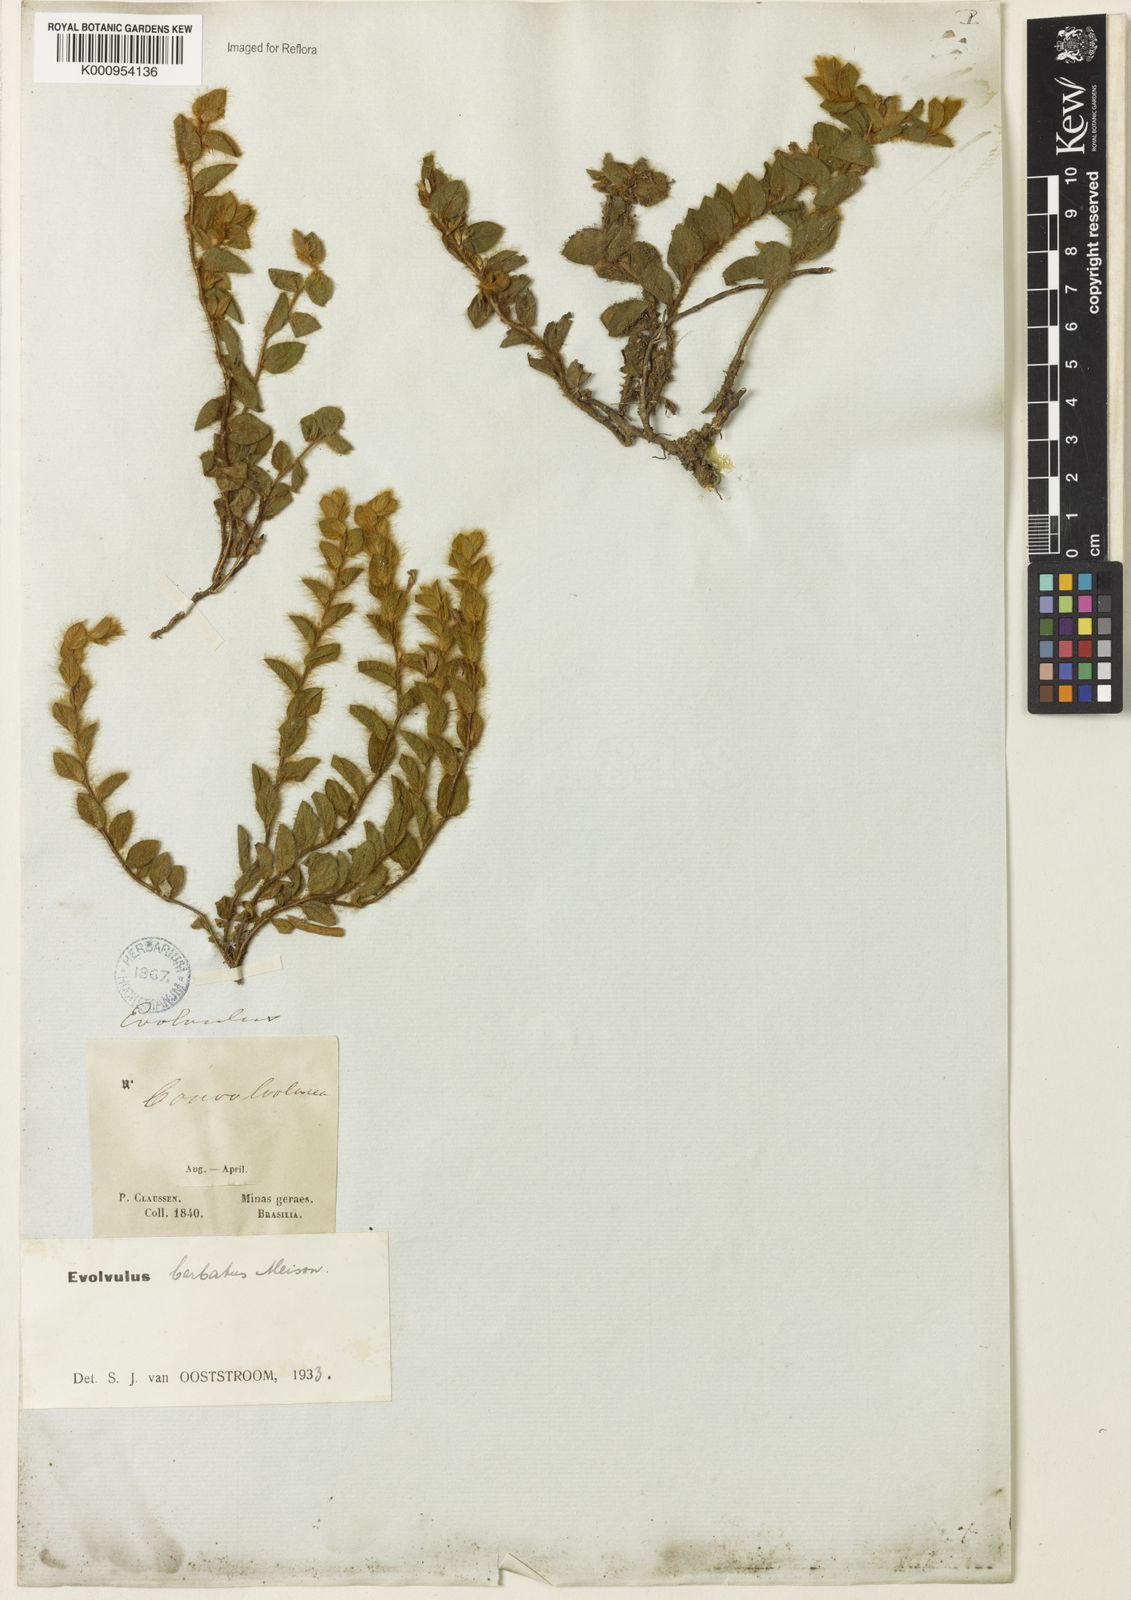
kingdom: Plantae
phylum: Tracheophyta
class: Magnoliopsida
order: Solanales
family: Convolvulaceae
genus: Evolvulus
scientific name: Evolvulus barbatus
